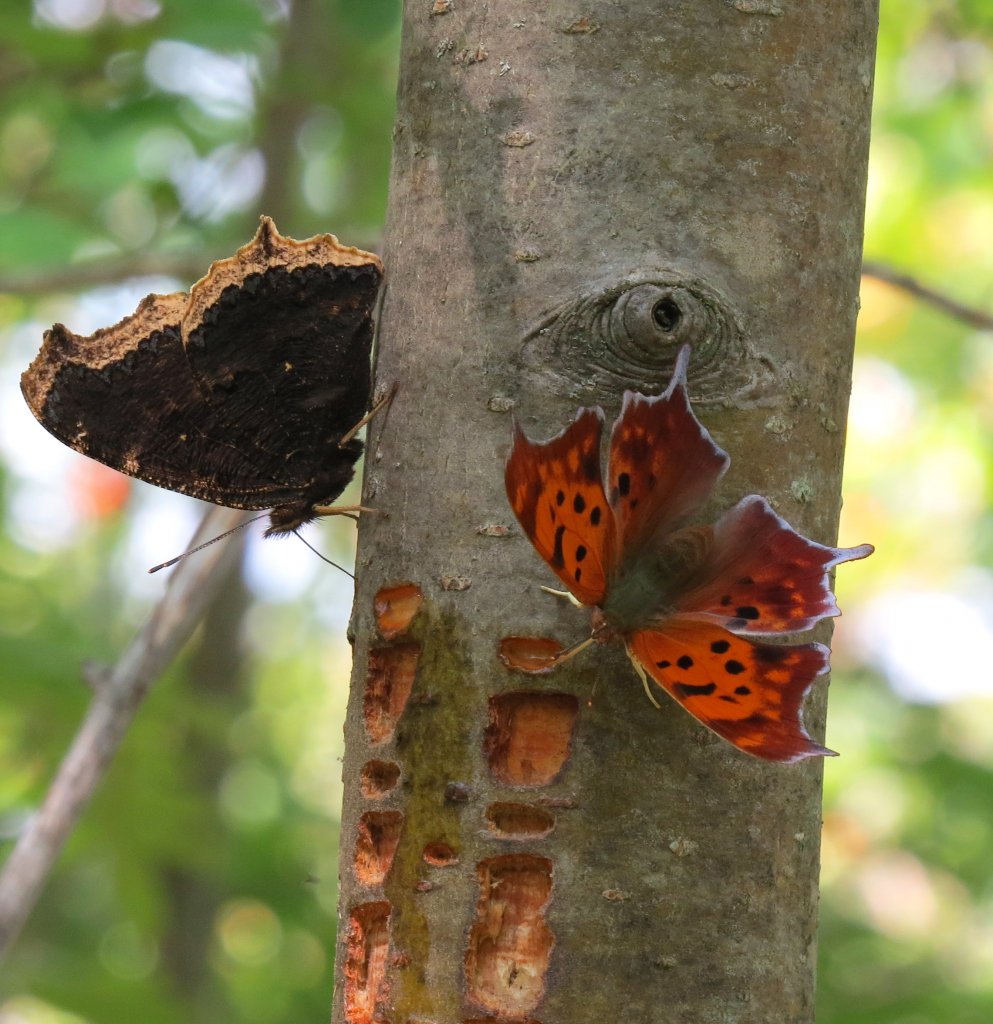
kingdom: Animalia
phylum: Arthropoda
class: Insecta
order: Lepidoptera
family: Nymphalidae
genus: Nymphalis
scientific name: Nymphalis antiopa
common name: Mourning Cloak
